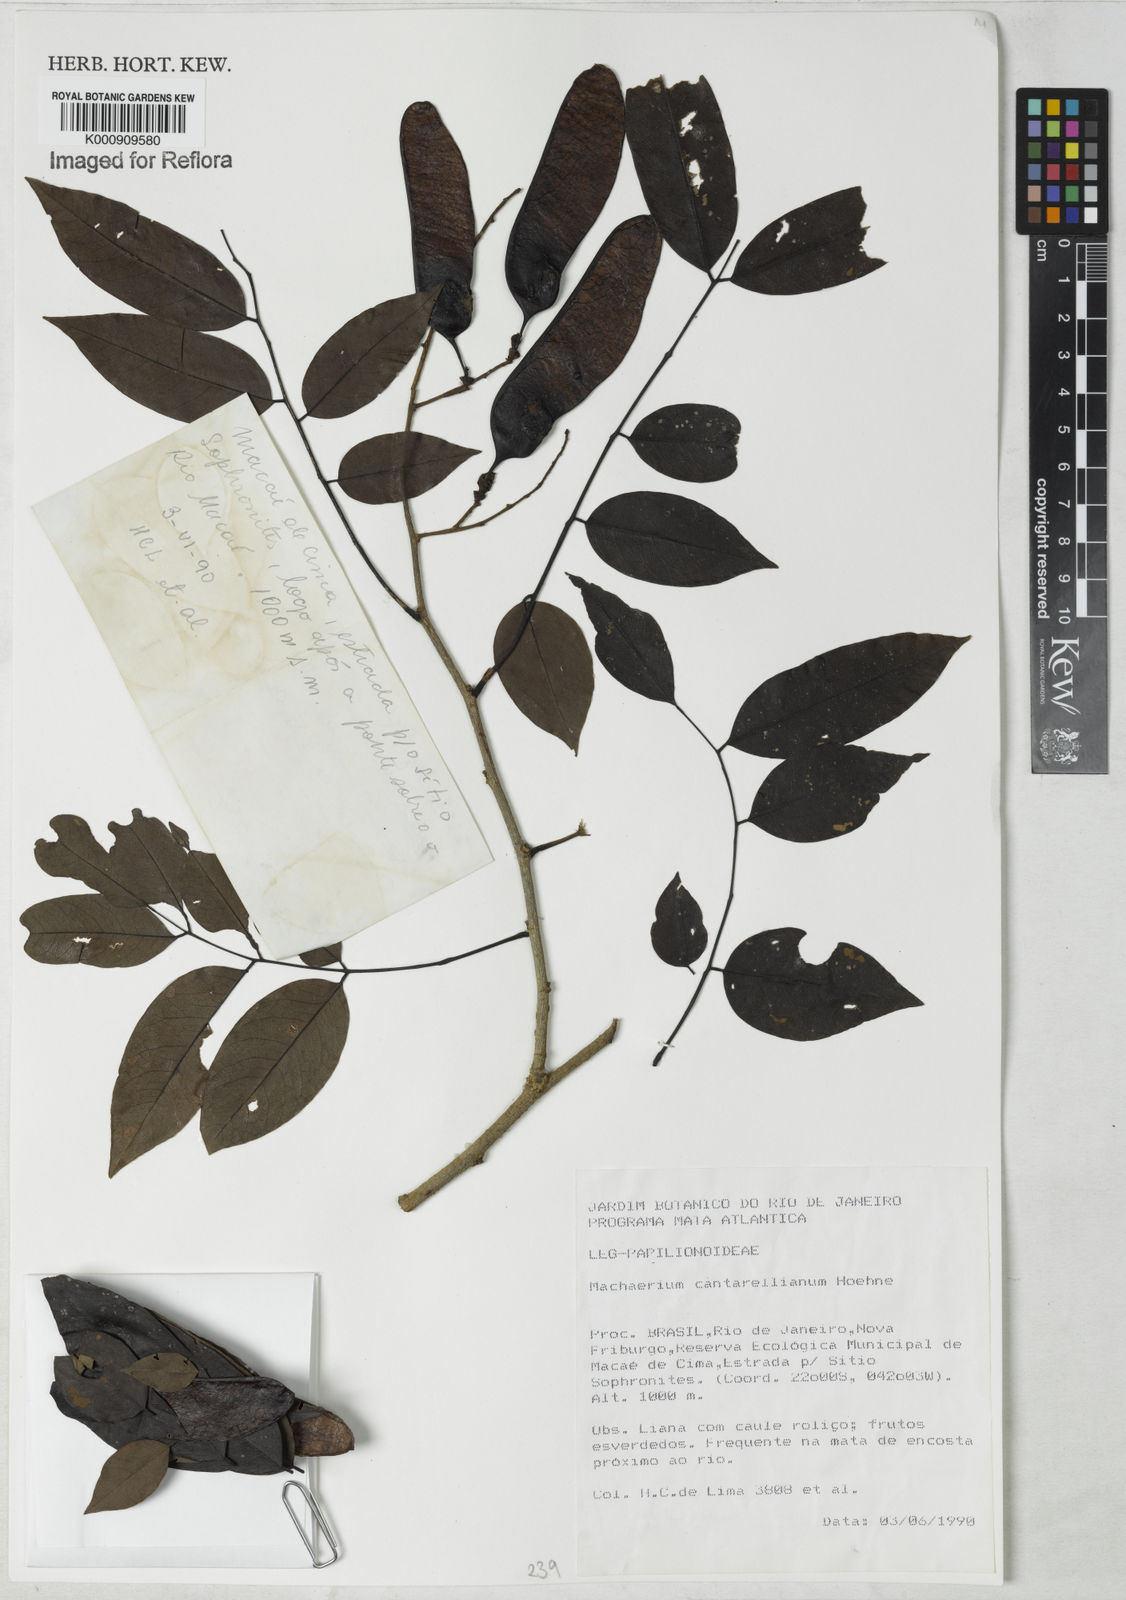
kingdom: Plantae
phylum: Tracheophyta
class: Magnoliopsida
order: Fabales
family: Fabaceae
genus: Machaerium
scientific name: Machaerium cantarellianum
